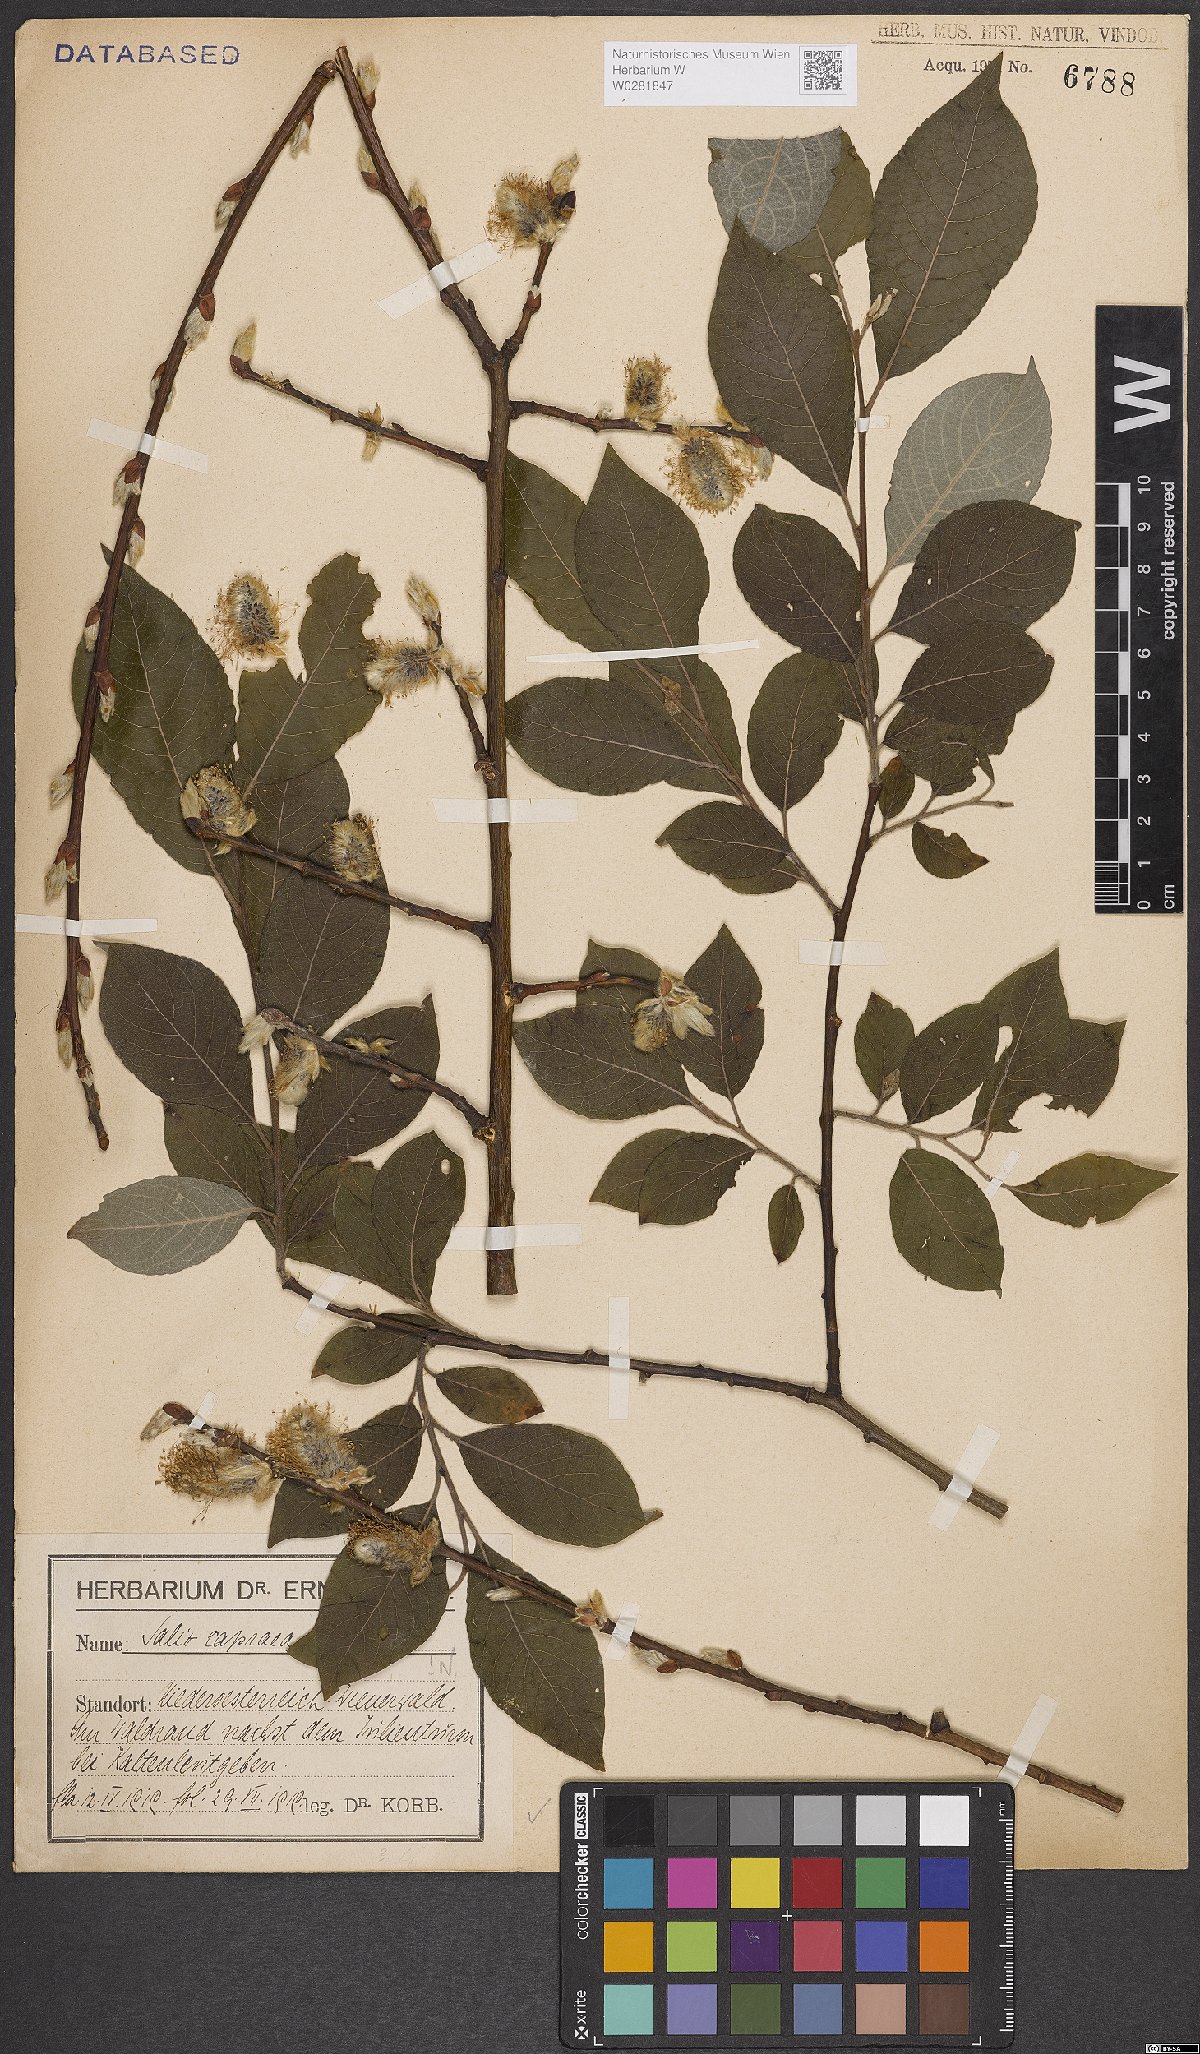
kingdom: Plantae
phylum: Tracheophyta
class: Magnoliopsida
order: Malpighiales
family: Salicaceae
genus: Salix
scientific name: Salix caprea
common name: Goat willow
